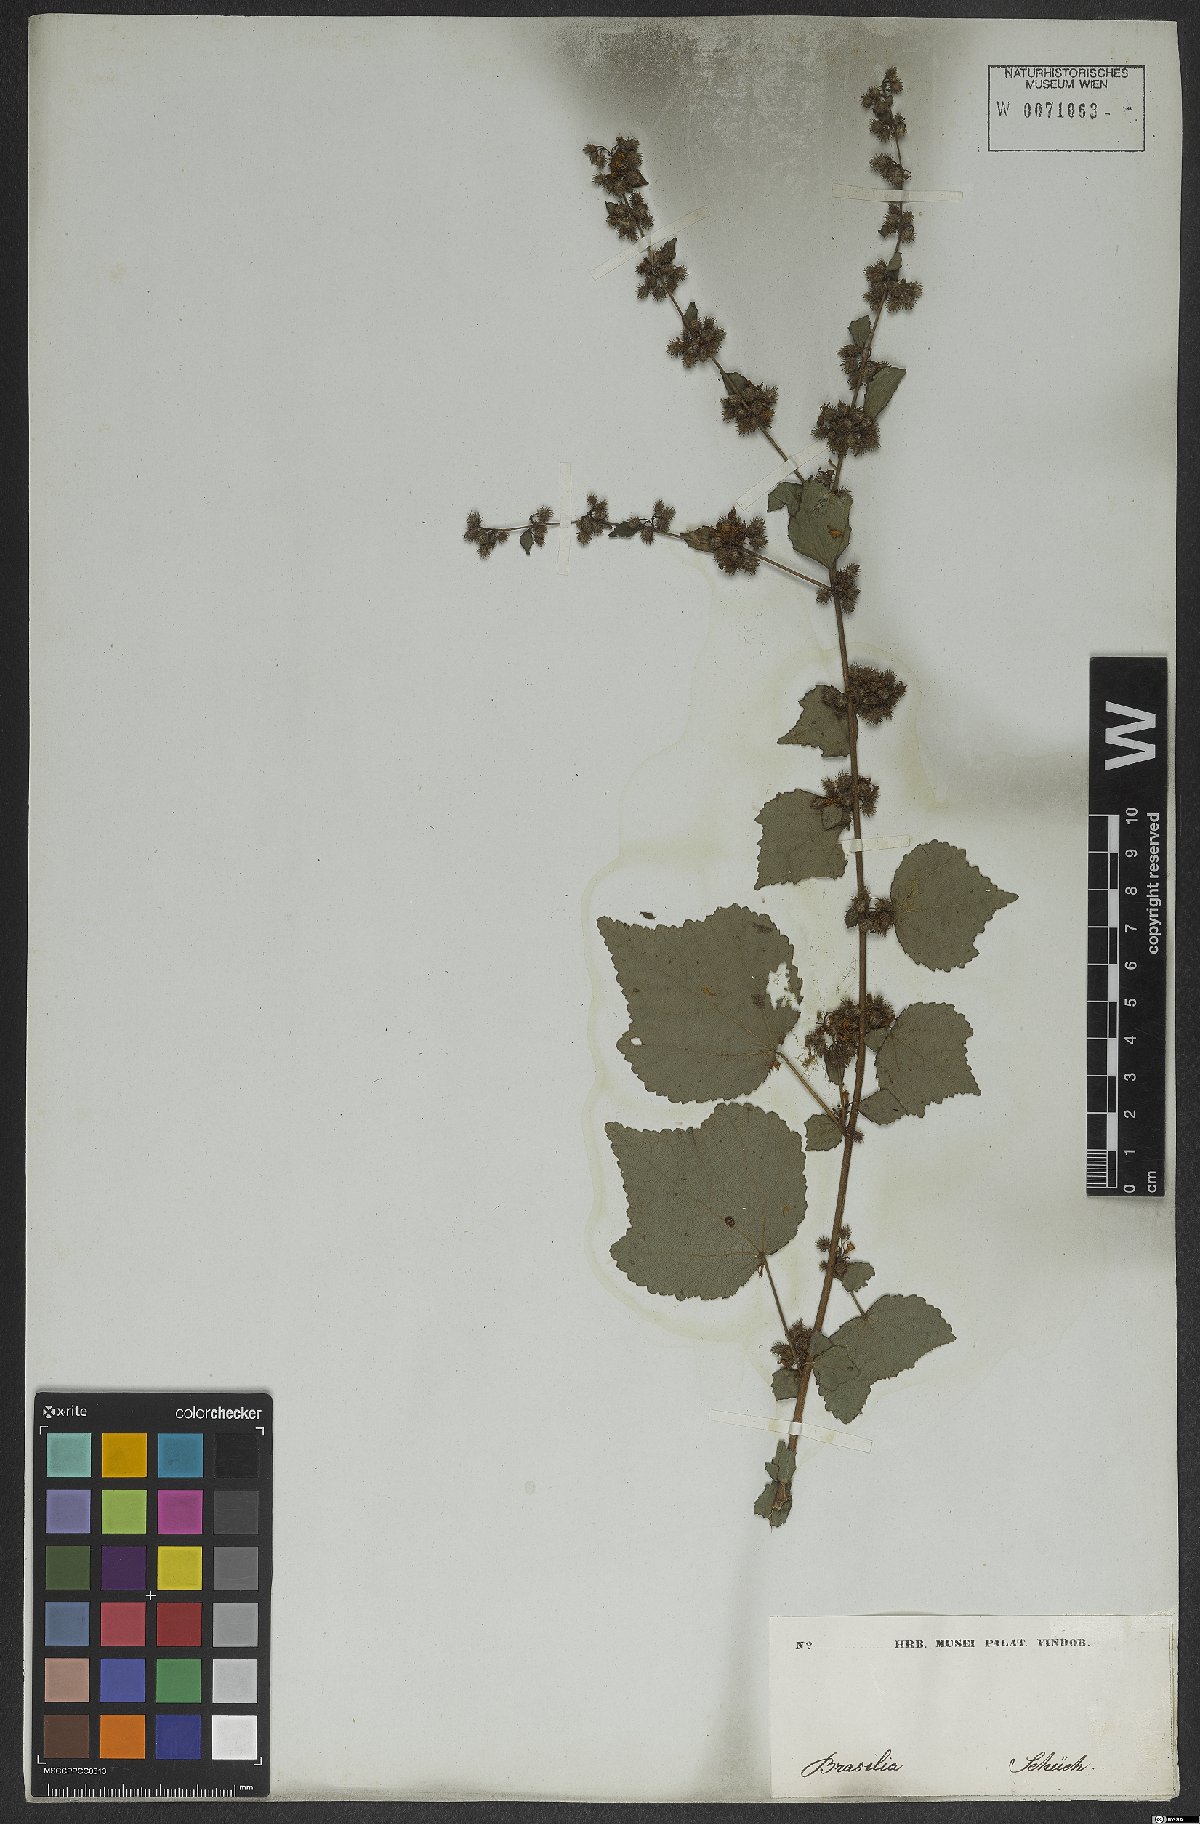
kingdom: Plantae
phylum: Tracheophyta
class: Magnoliopsida
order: Malvales
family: Malvaceae
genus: Triumfetta
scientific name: Triumfetta rhomboidea
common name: Diamond burbark
